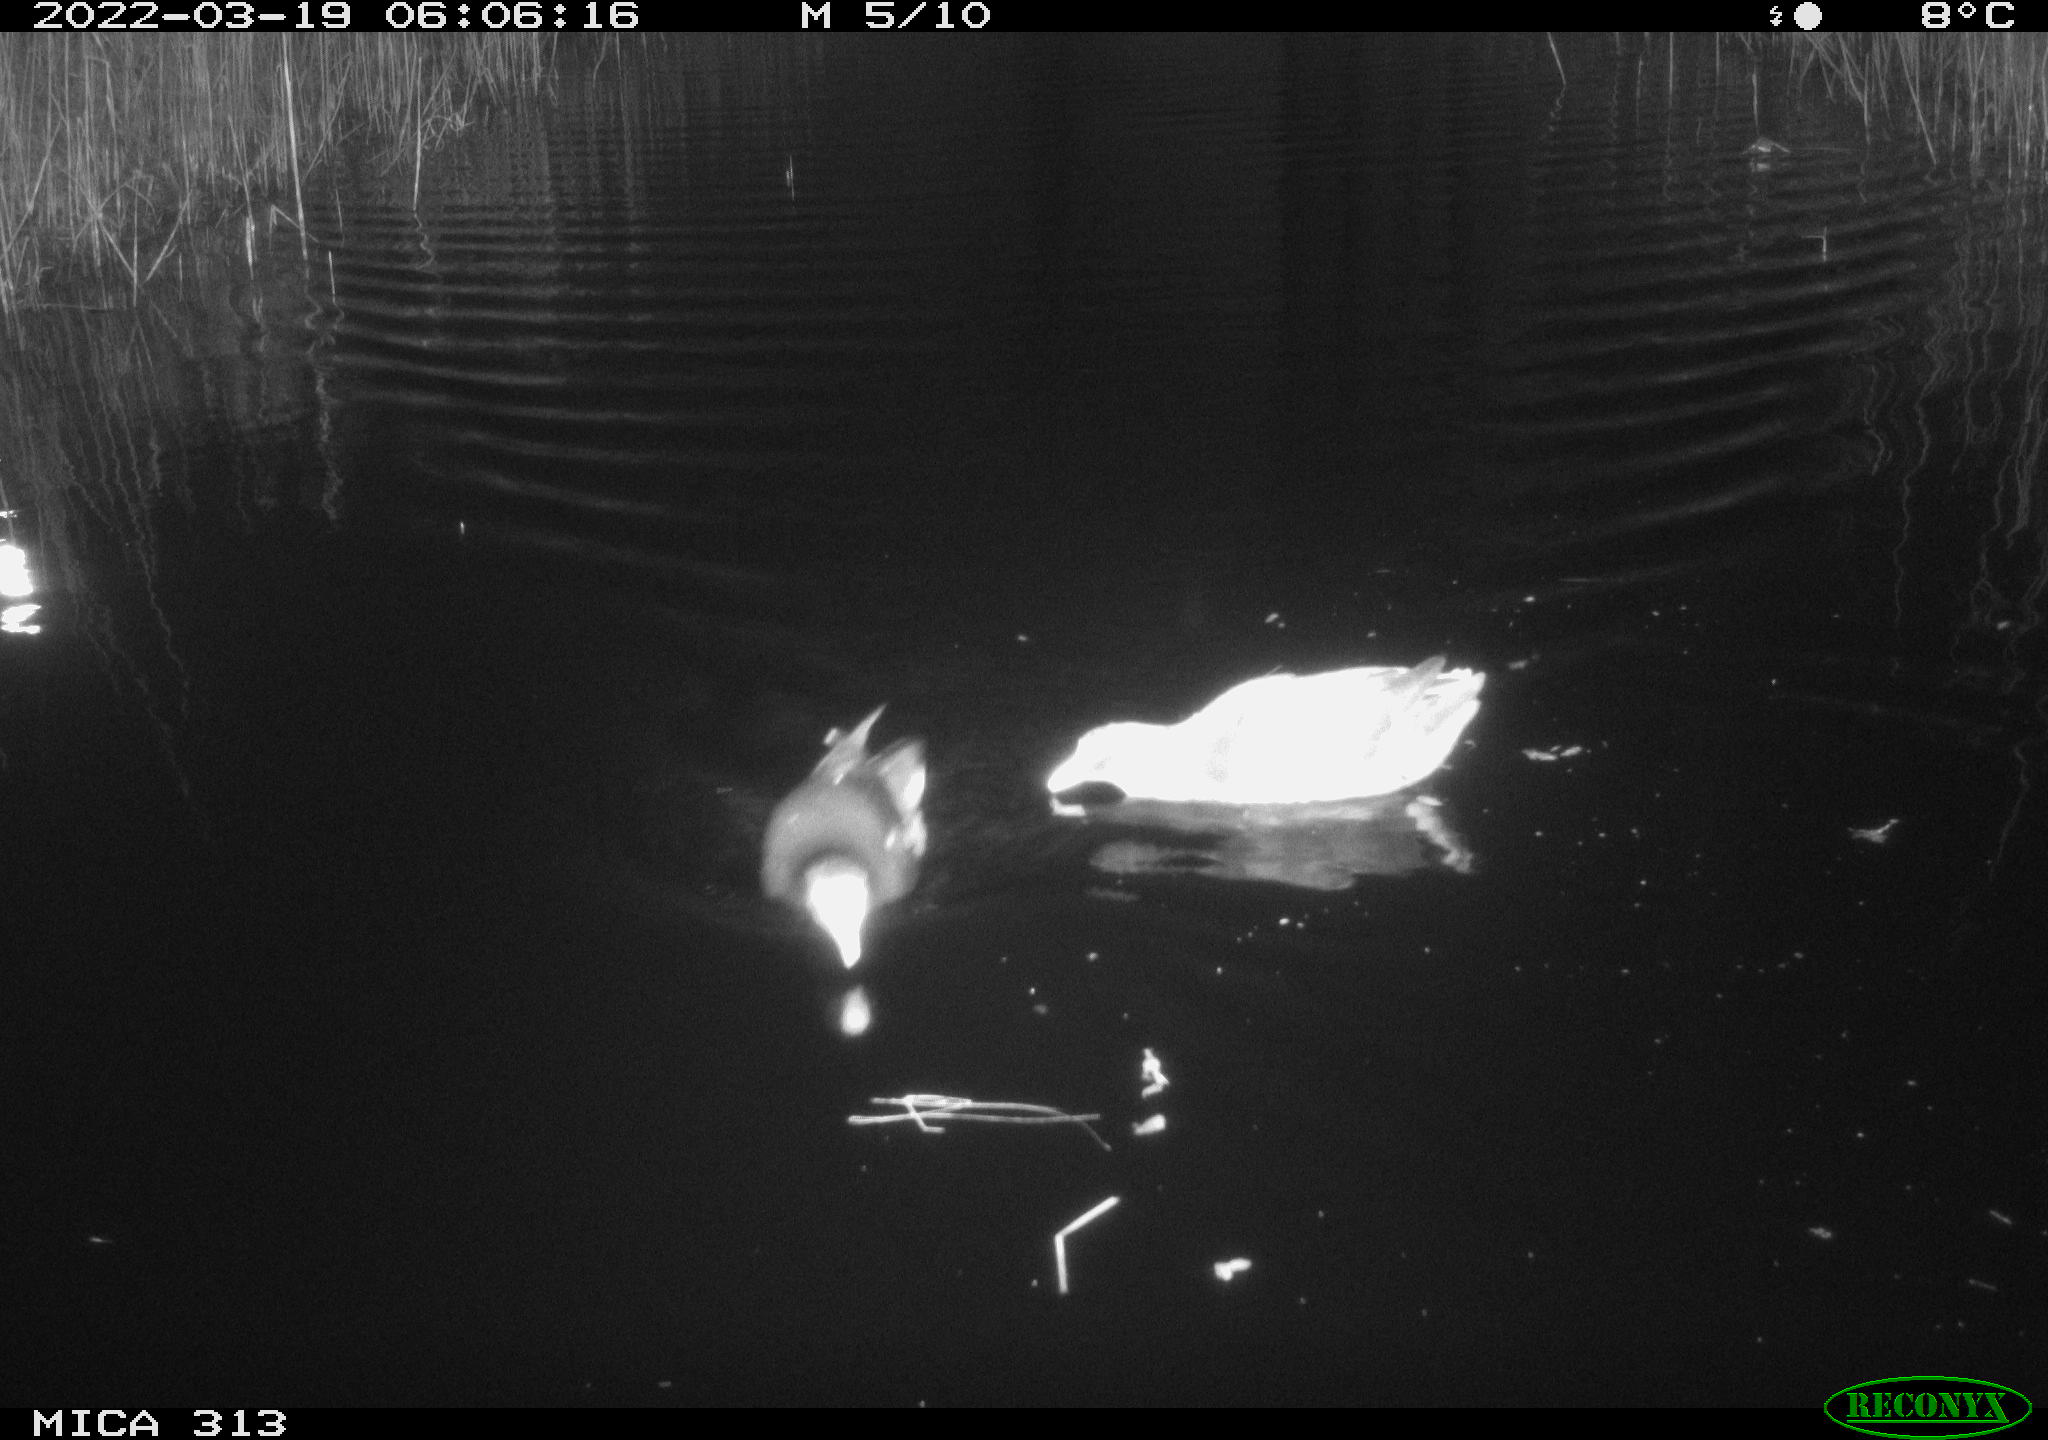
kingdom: Animalia
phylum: Chordata
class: Aves
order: Gruiformes
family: Rallidae
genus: Gallinula
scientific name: Gallinula chloropus
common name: Common moorhen
